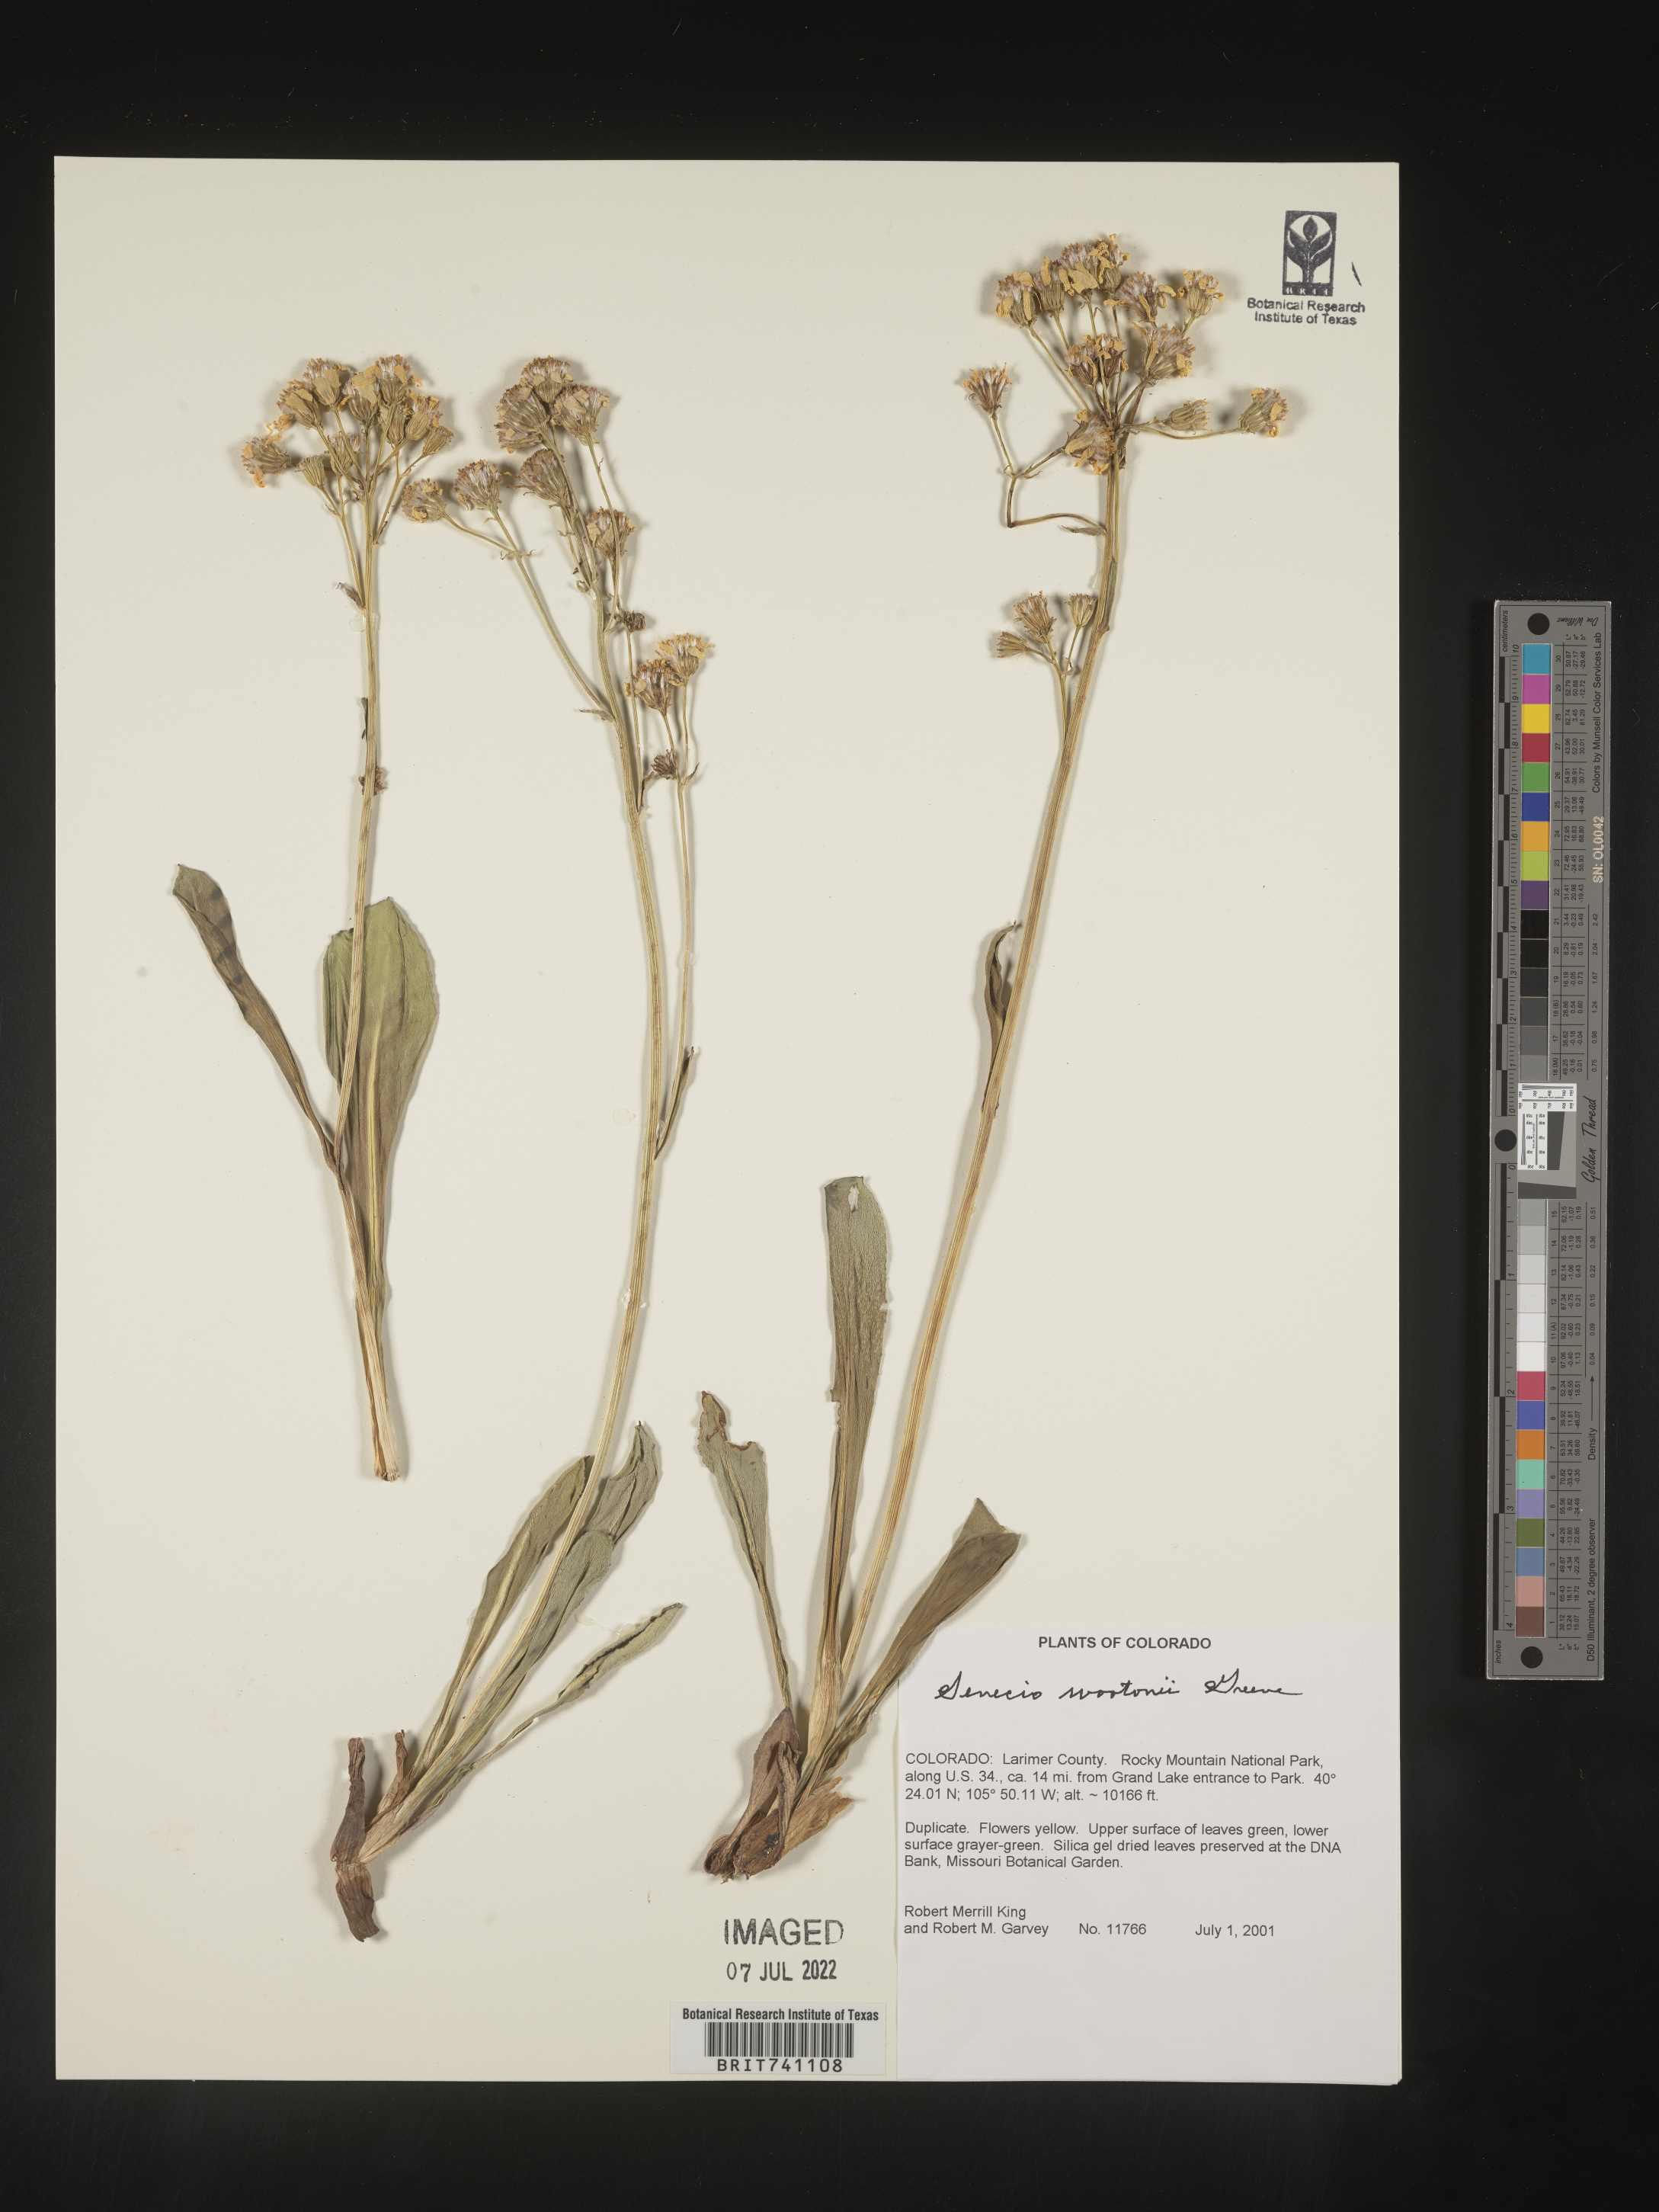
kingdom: Plantae
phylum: Tracheophyta
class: Magnoliopsida
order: Asterales
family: Asteraceae
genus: Senecio
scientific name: Senecio wootonii
